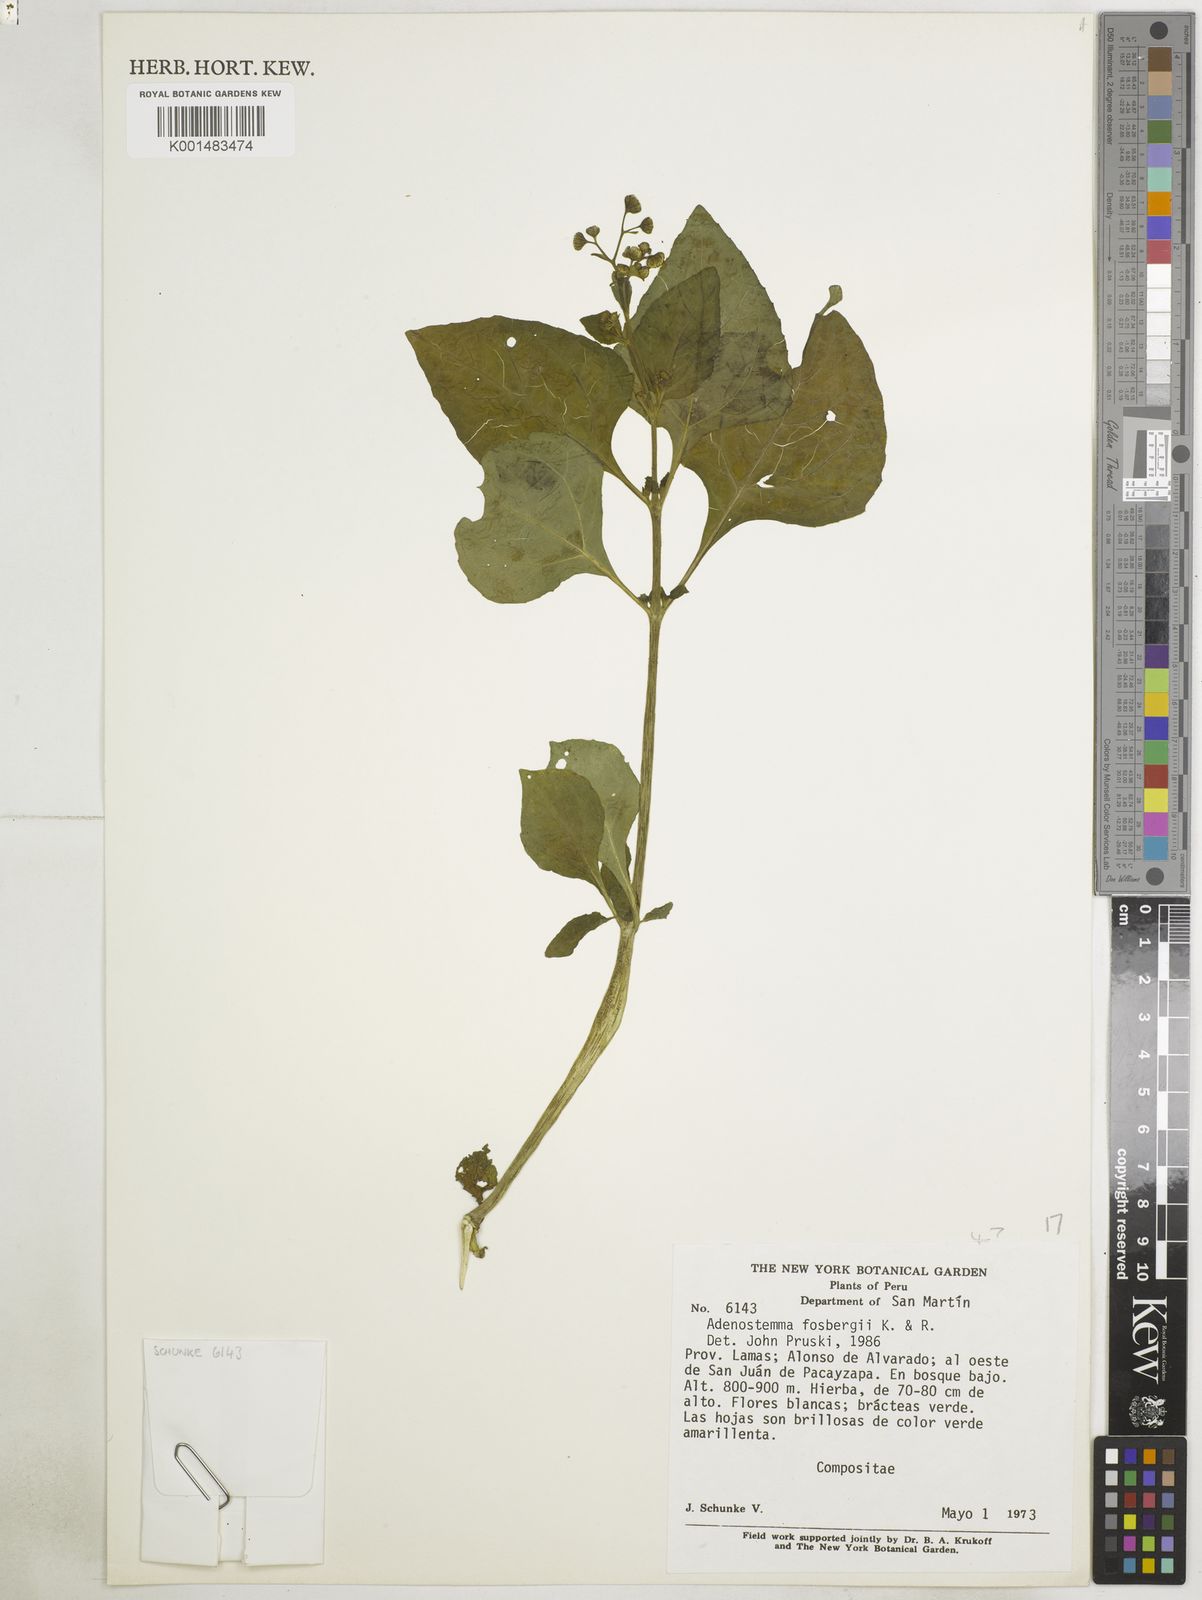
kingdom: Plantae
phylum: Tracheophyta
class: Magnoliopsida
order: Asterales
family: Asteraceae
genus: Adenostemma
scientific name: Adenostemma fosbergii
